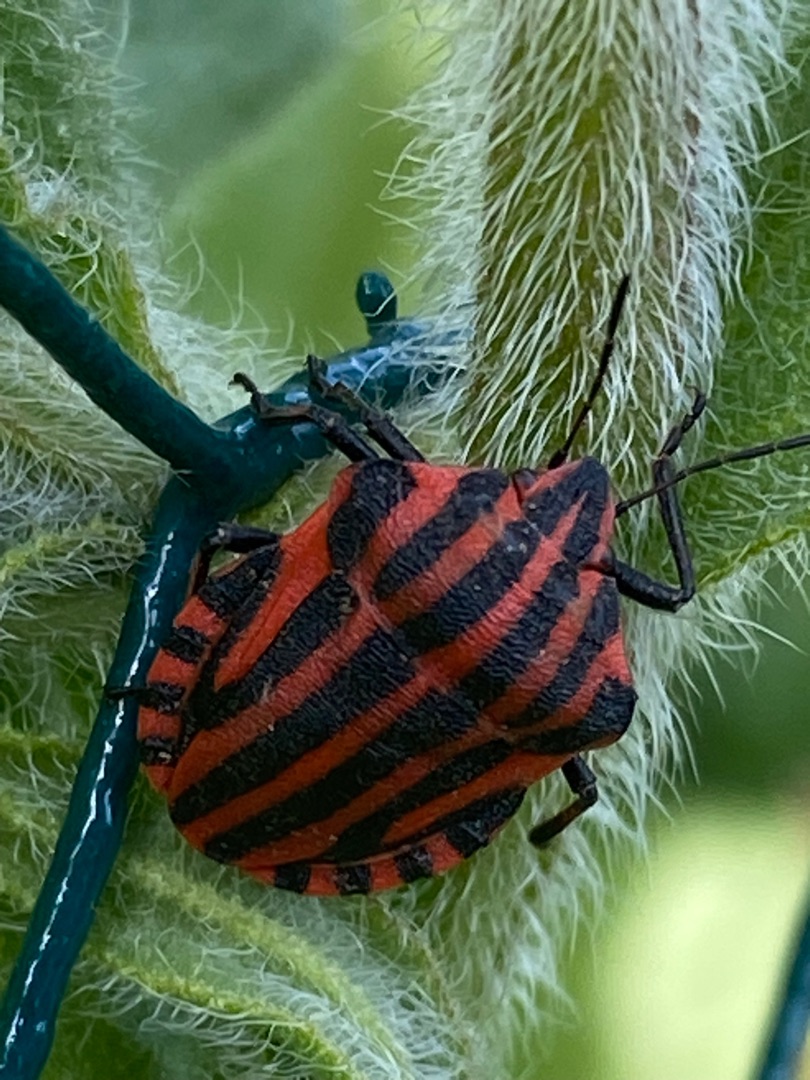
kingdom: Animalia
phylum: Arthropoda
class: Insecta
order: Hemiptera
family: Pentatomidae
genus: Graphosoma
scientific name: Graphosoma italicum
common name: Stribetæge
